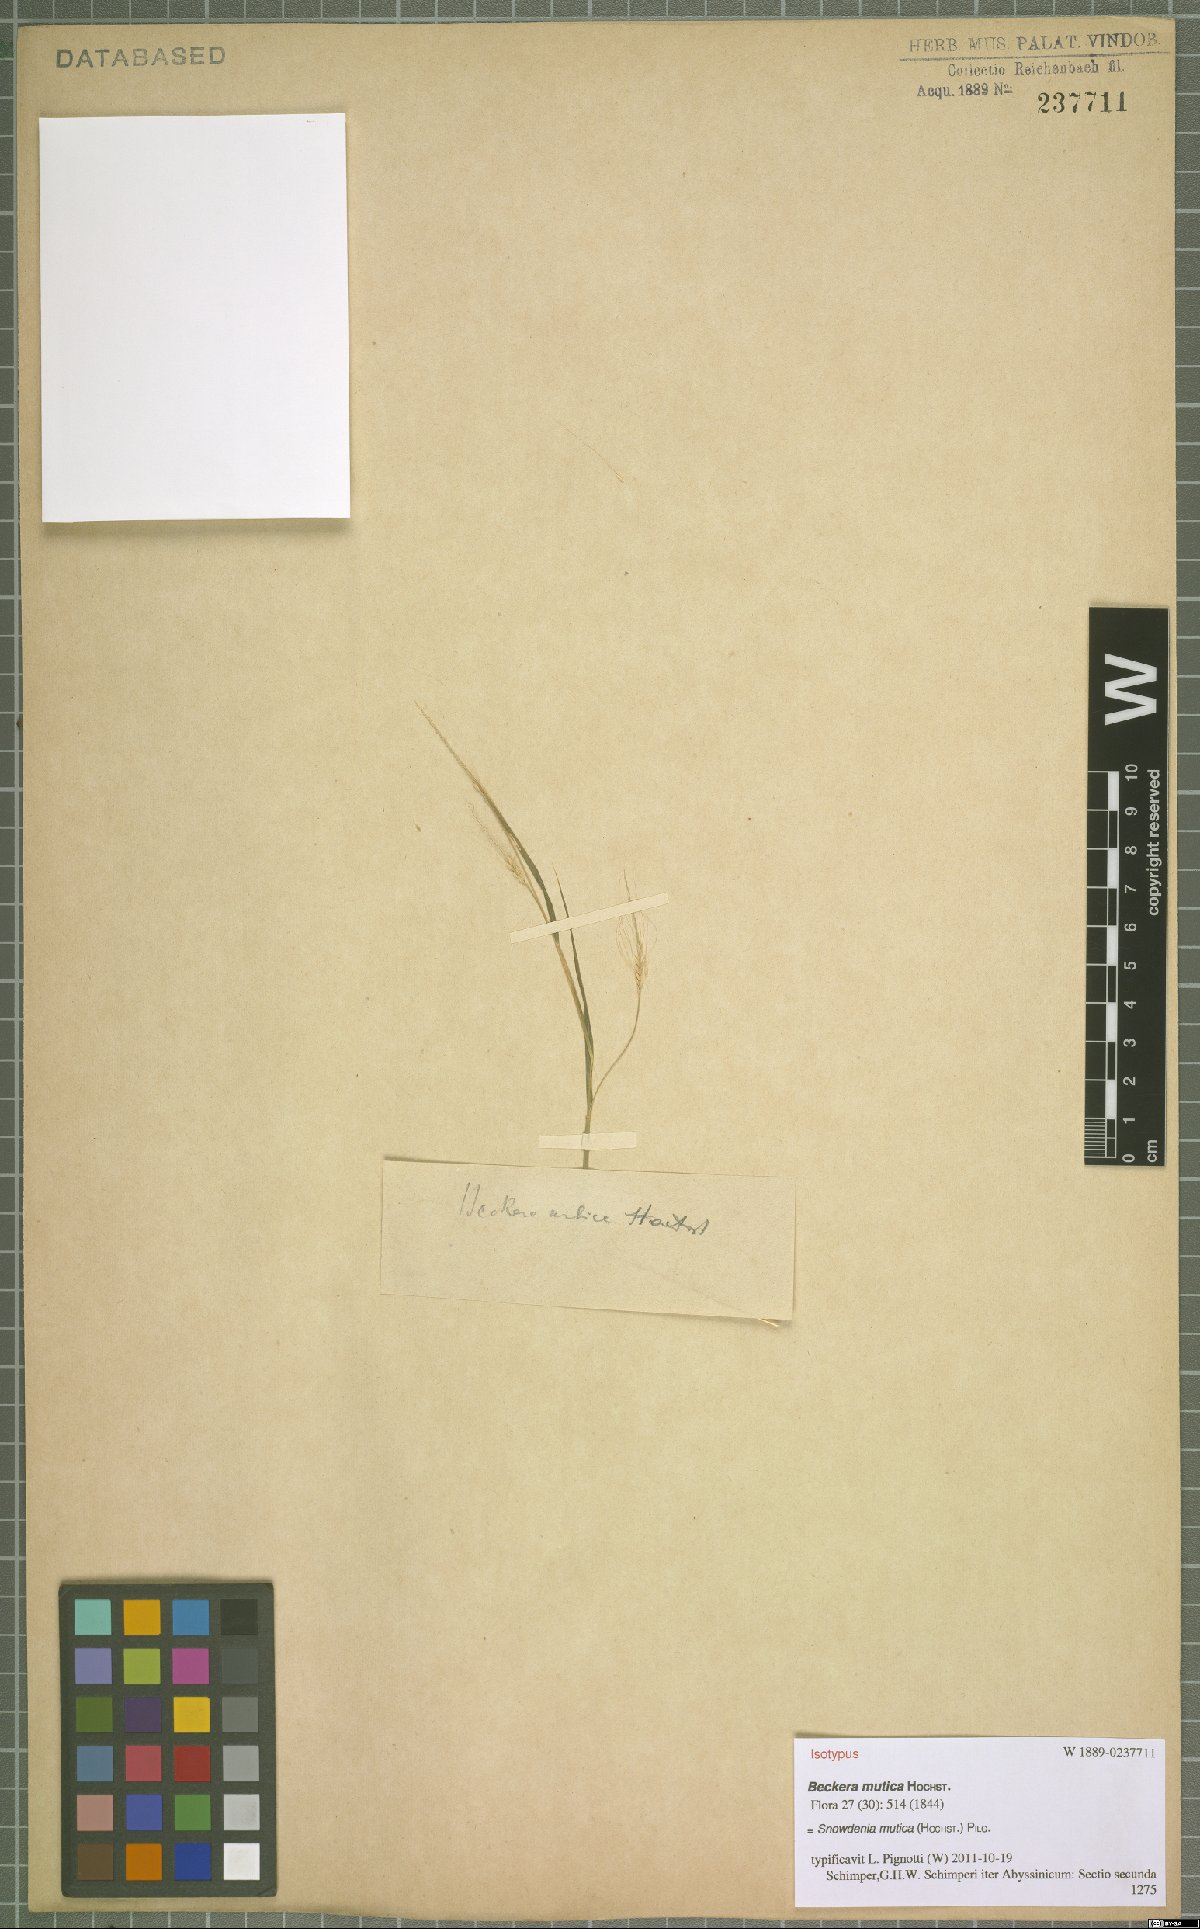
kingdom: Plantae
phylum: Tracheophyta
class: Liliopsida
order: Poales
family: Poaceae
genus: Snowdenia
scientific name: Snowdenia mutica
